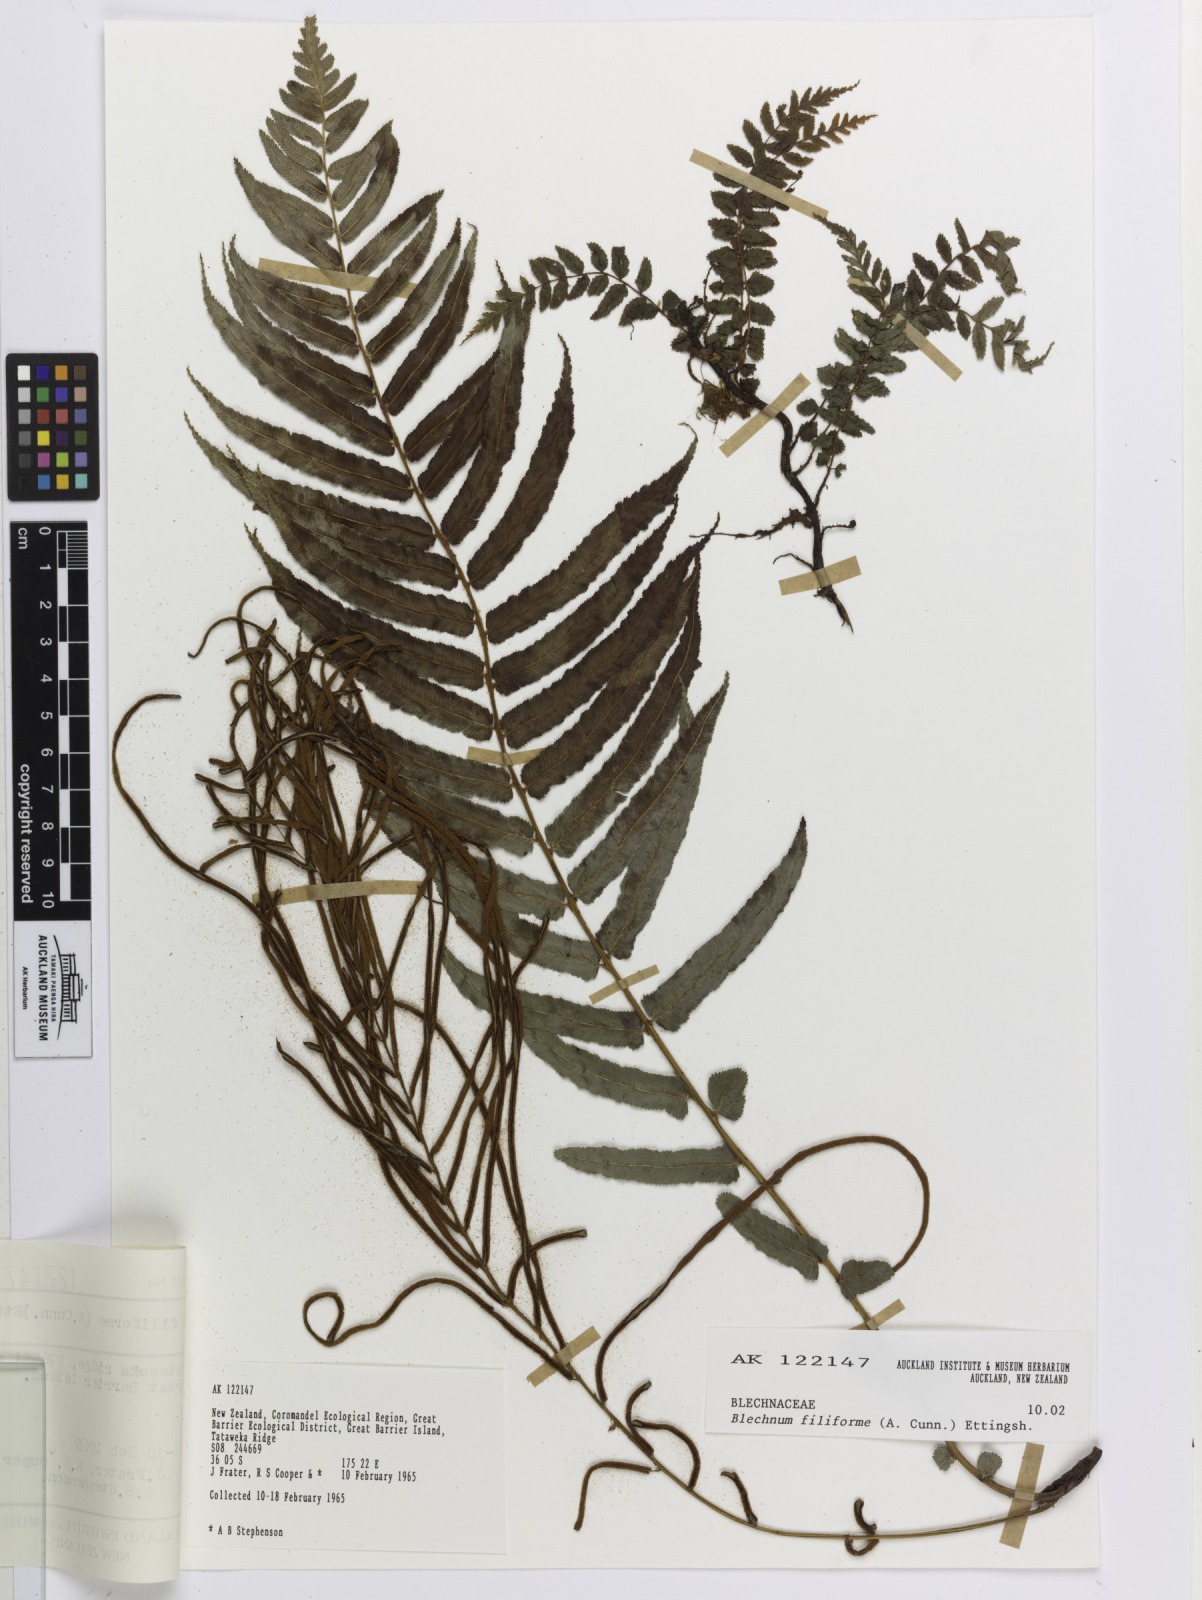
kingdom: Plantae
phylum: Tracheophyta
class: Polypodiopsida
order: Polypodiales
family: Blechnaceae
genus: Icarus
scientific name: Icarus filiformis
